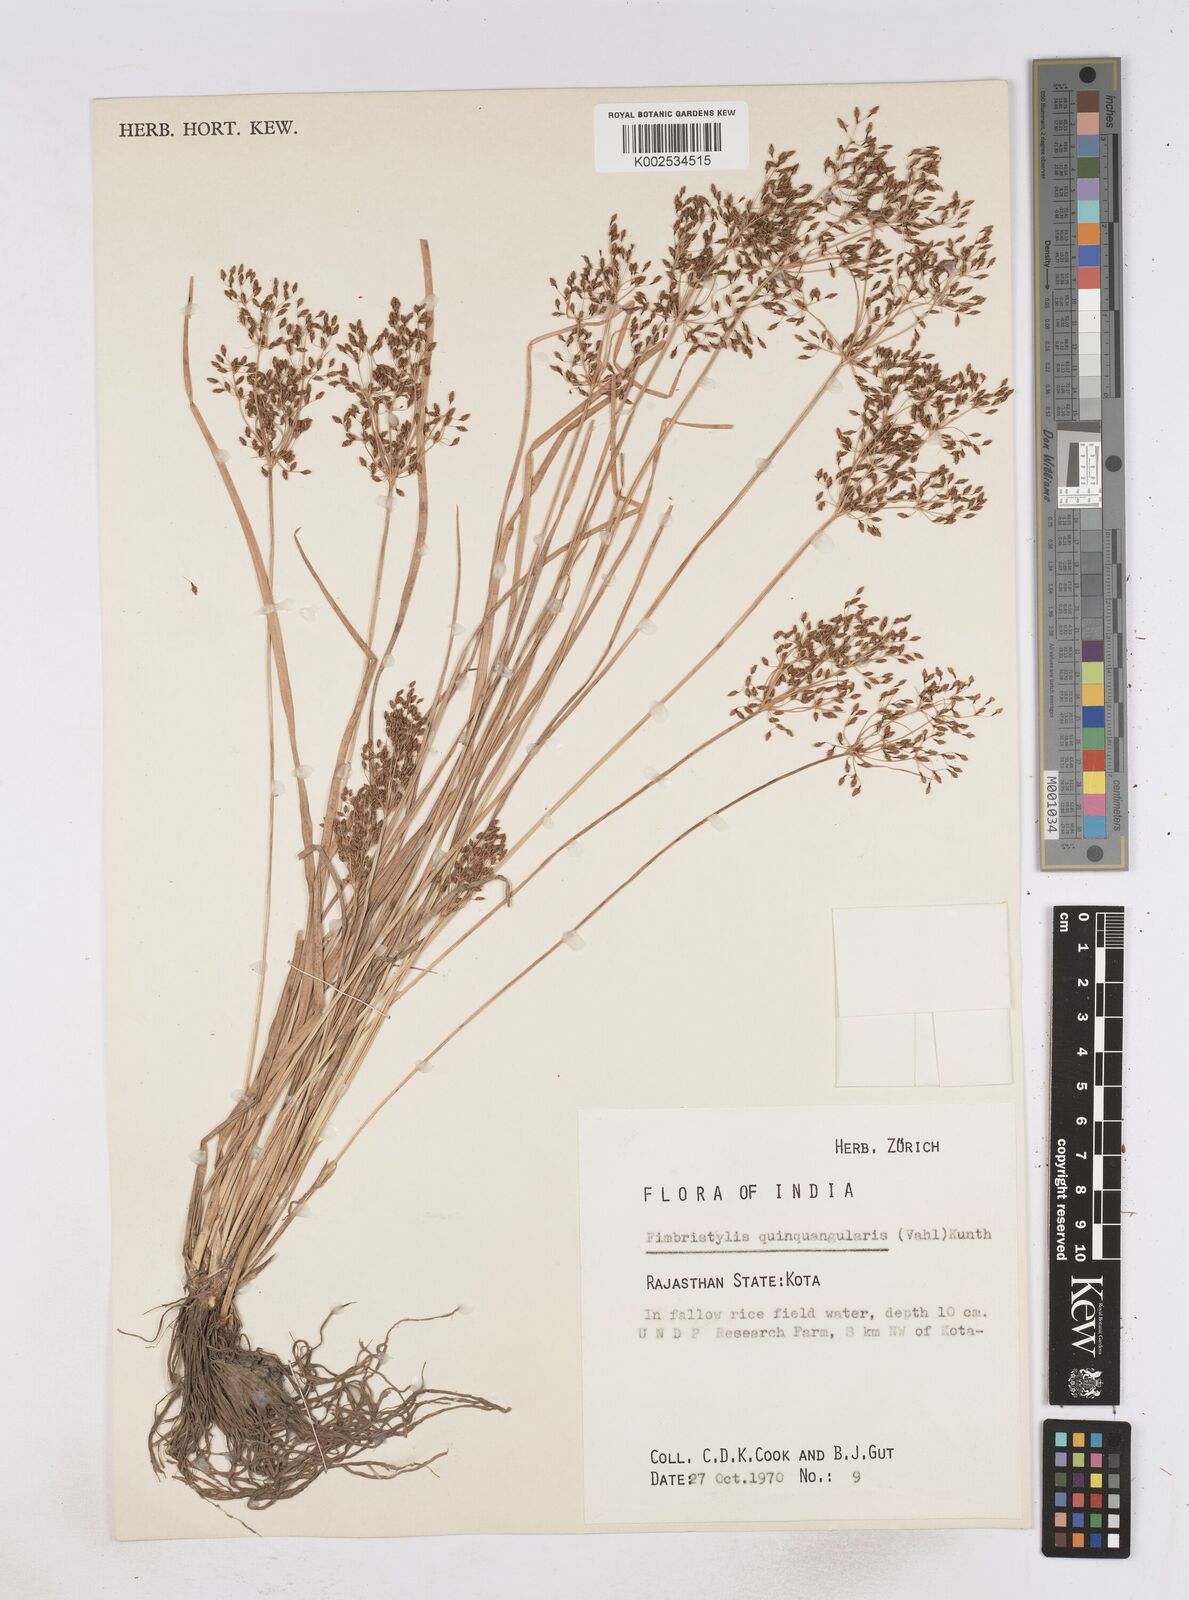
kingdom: Plantae
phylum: Tracheophyta
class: Liliopsida
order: Poales
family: Cyperaceae
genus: Fimbristylis
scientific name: Fimbristylis quinquangularis
